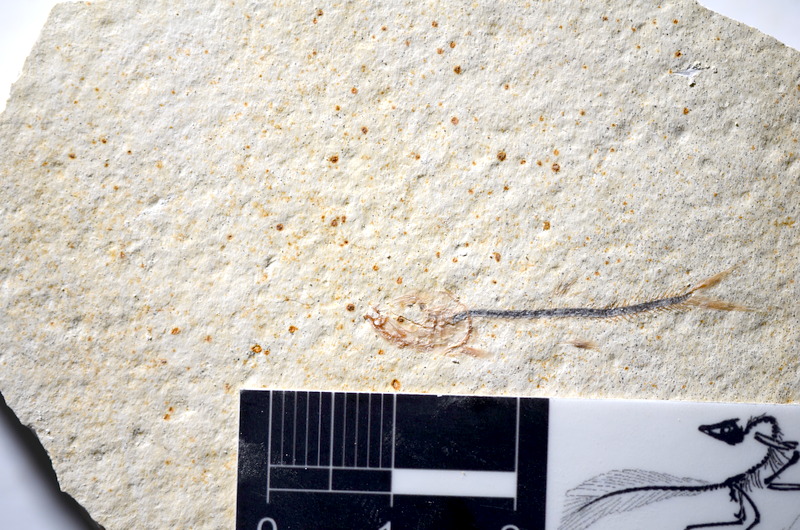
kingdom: Animalia
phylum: Chordata
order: Salmoniformes
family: Orthogonikleithridae
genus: Orthogonikleithrus
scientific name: Orthogonikleithrus hoelli
